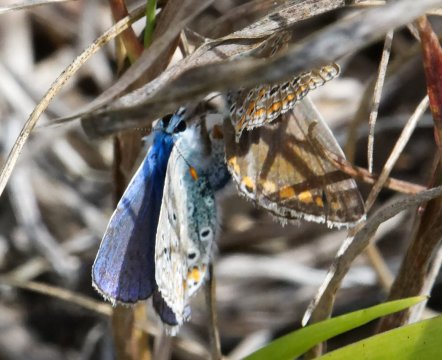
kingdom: Animalia
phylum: Arthropoda
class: Insecta
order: Lepidoptera
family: Lycaenidae
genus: Polyommatus
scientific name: Polyommatus icarus
